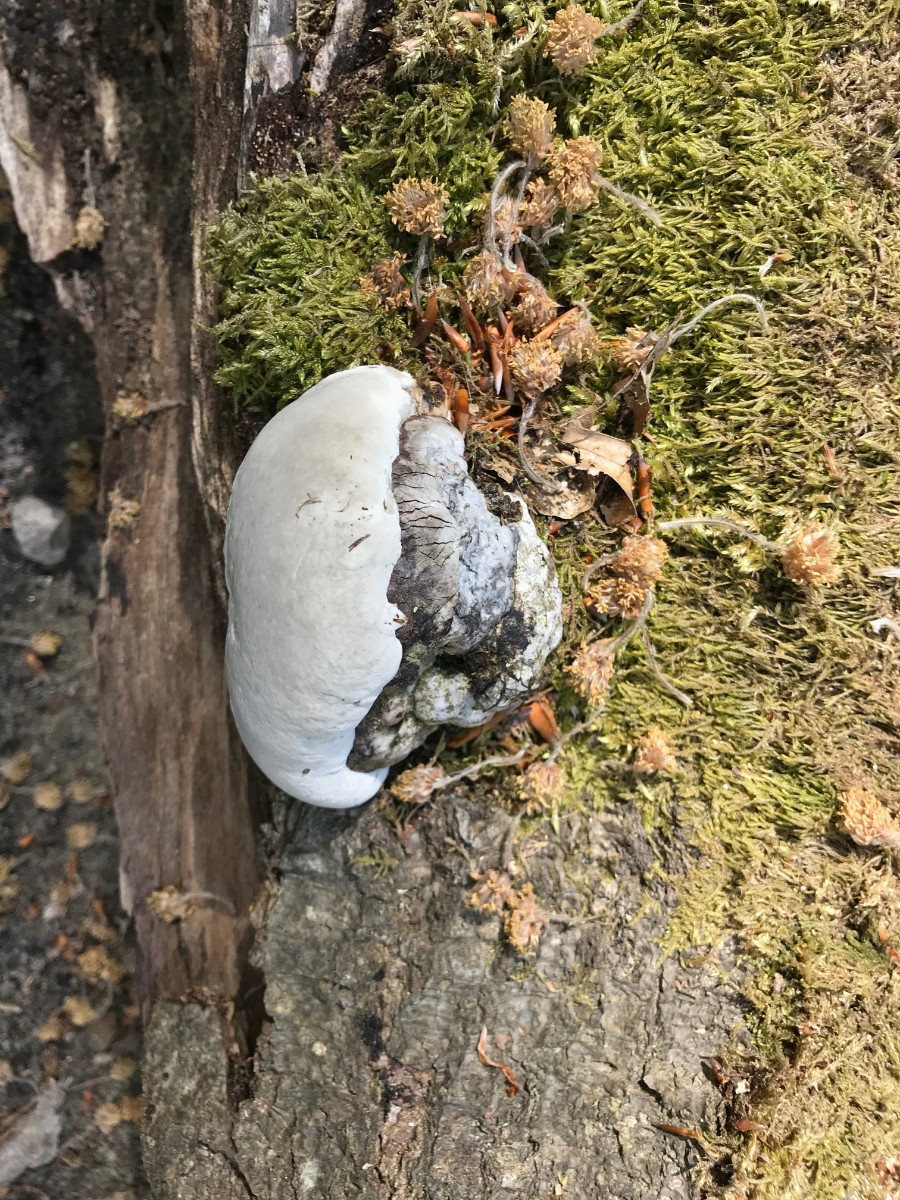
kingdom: Fungi
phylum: Basidiomycota
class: Agaricomycetes
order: Polyporales
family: Polyporaceae
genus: Fomes
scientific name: Fomes fomentarius
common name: tøndersvamp
